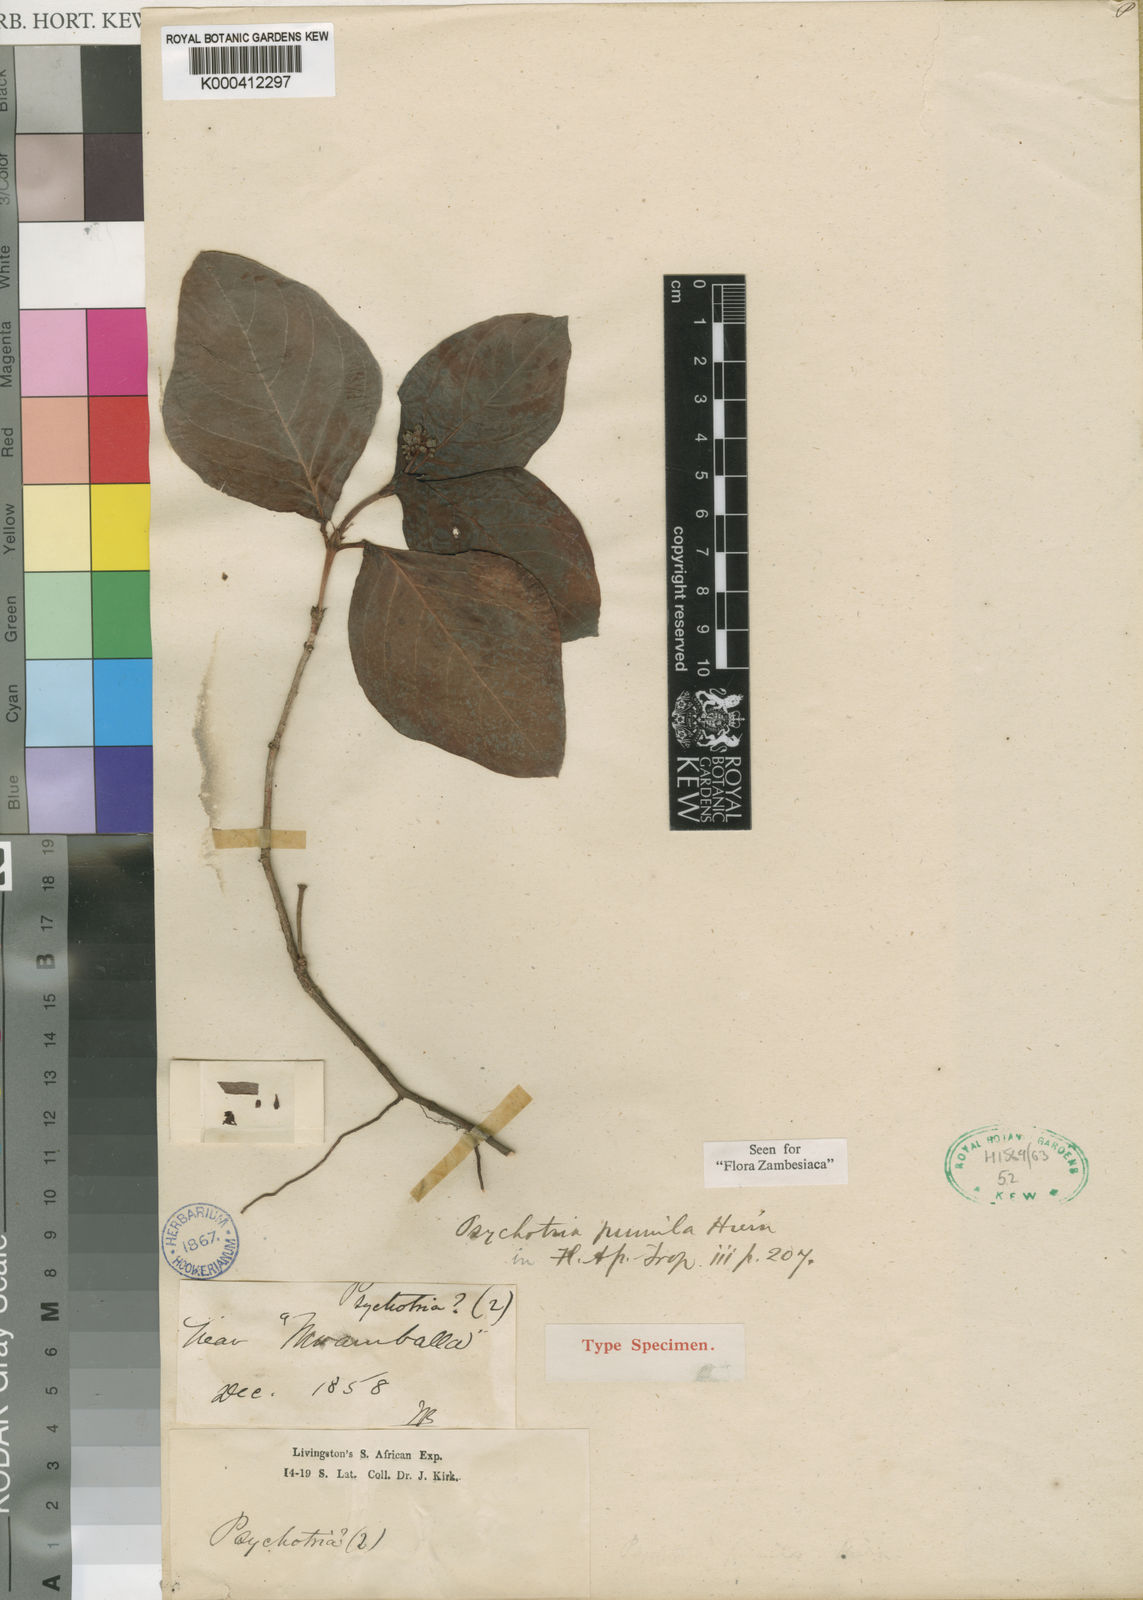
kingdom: Plantae
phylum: Tracheophyta
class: Magnoliopsida
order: Gentianales
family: Rubiaceae
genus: Psychotria
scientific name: Psychotria pumila
